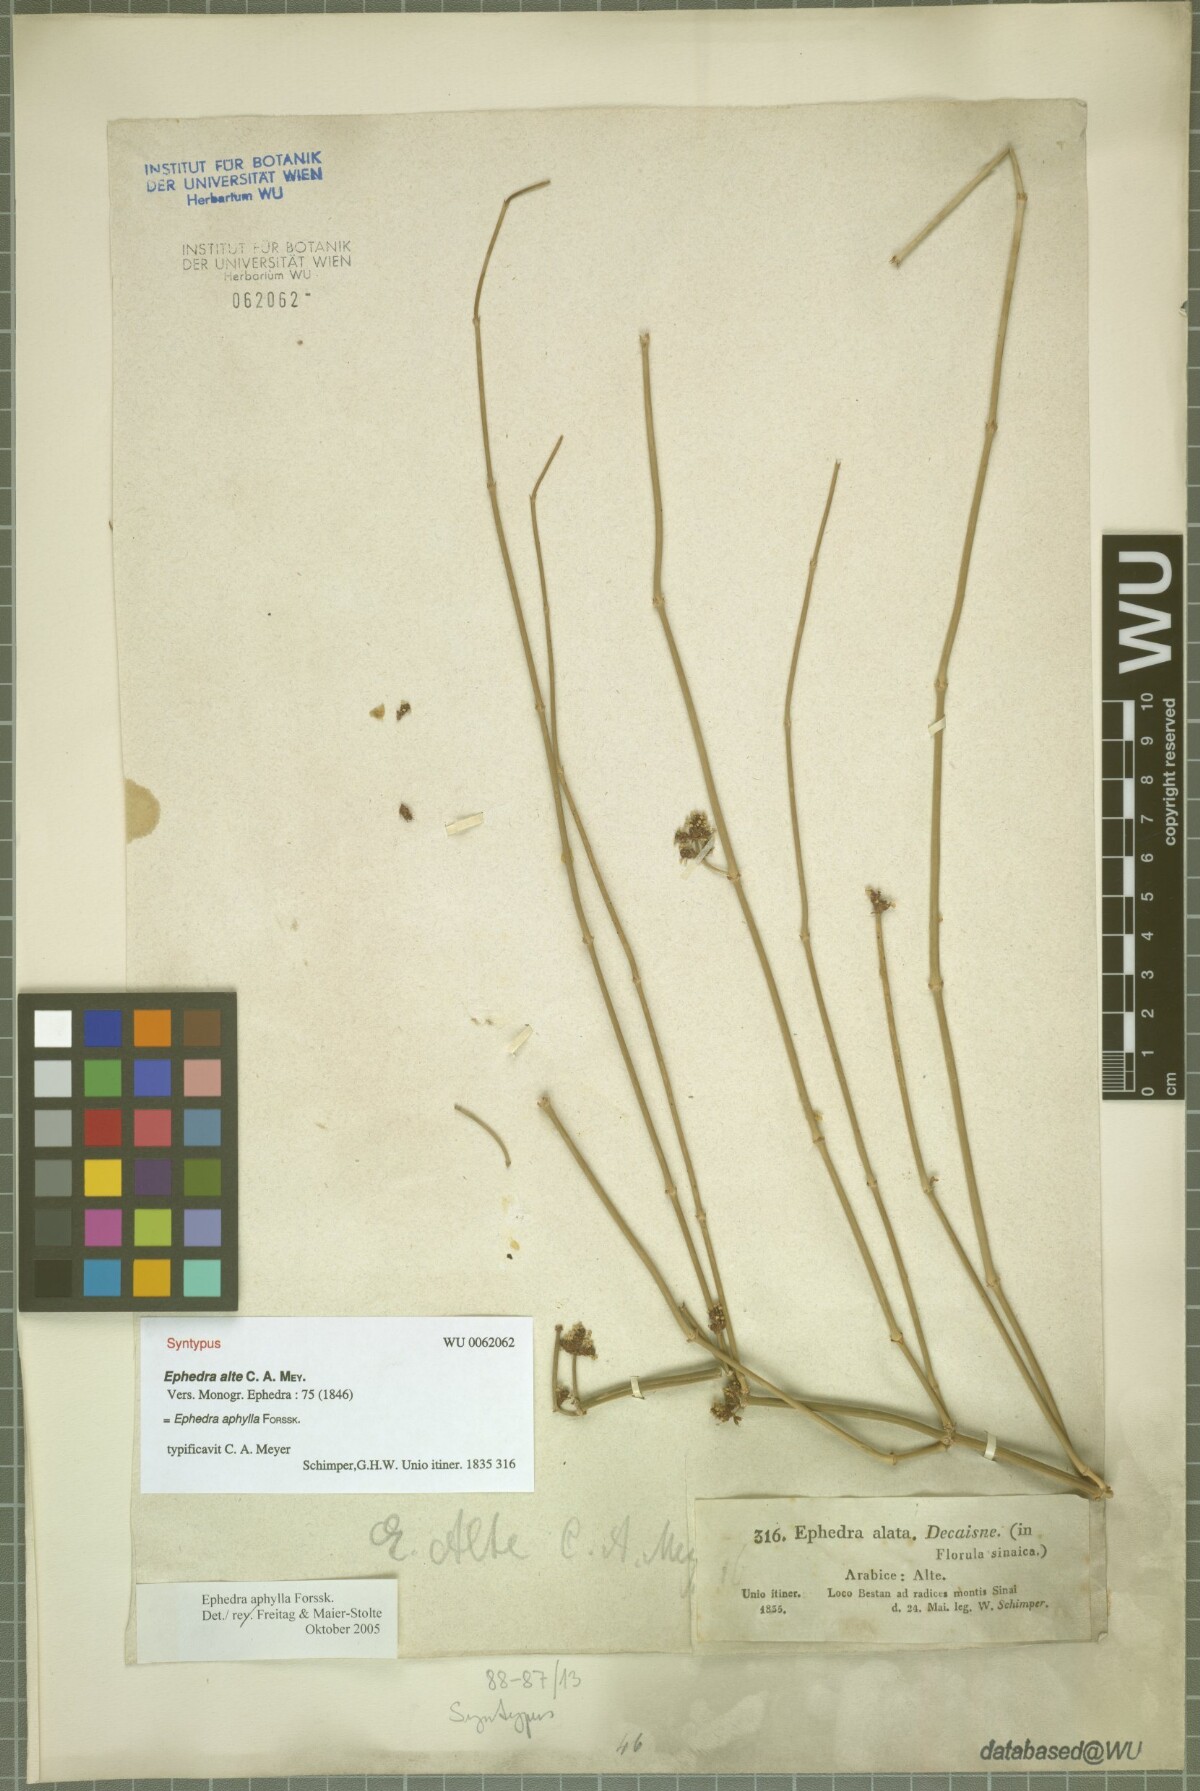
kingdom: Plantae
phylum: Tracheophyta
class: Gnetopsida
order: Ephedrales
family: Ephedraceae
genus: Ephedra
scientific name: Ephedra ciliata
